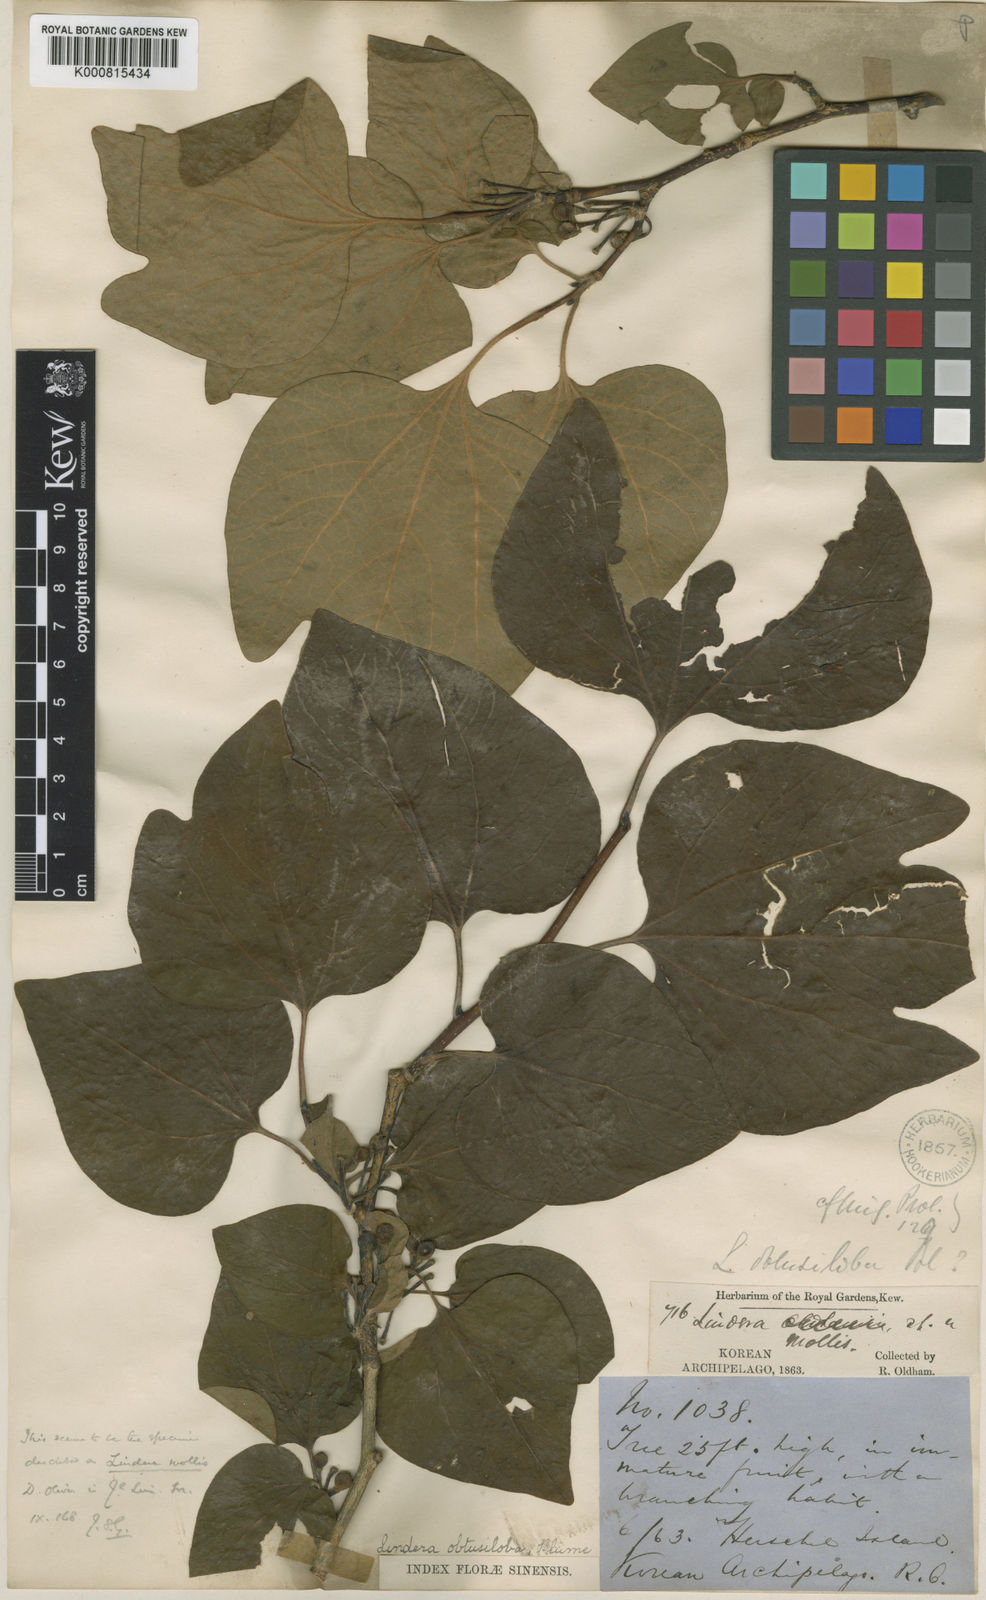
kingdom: Plantae
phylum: Tracheophyta
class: Magnoliopsida
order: Laurales
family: Lauraceae
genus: Lindera
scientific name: Lindera obtusiloba
